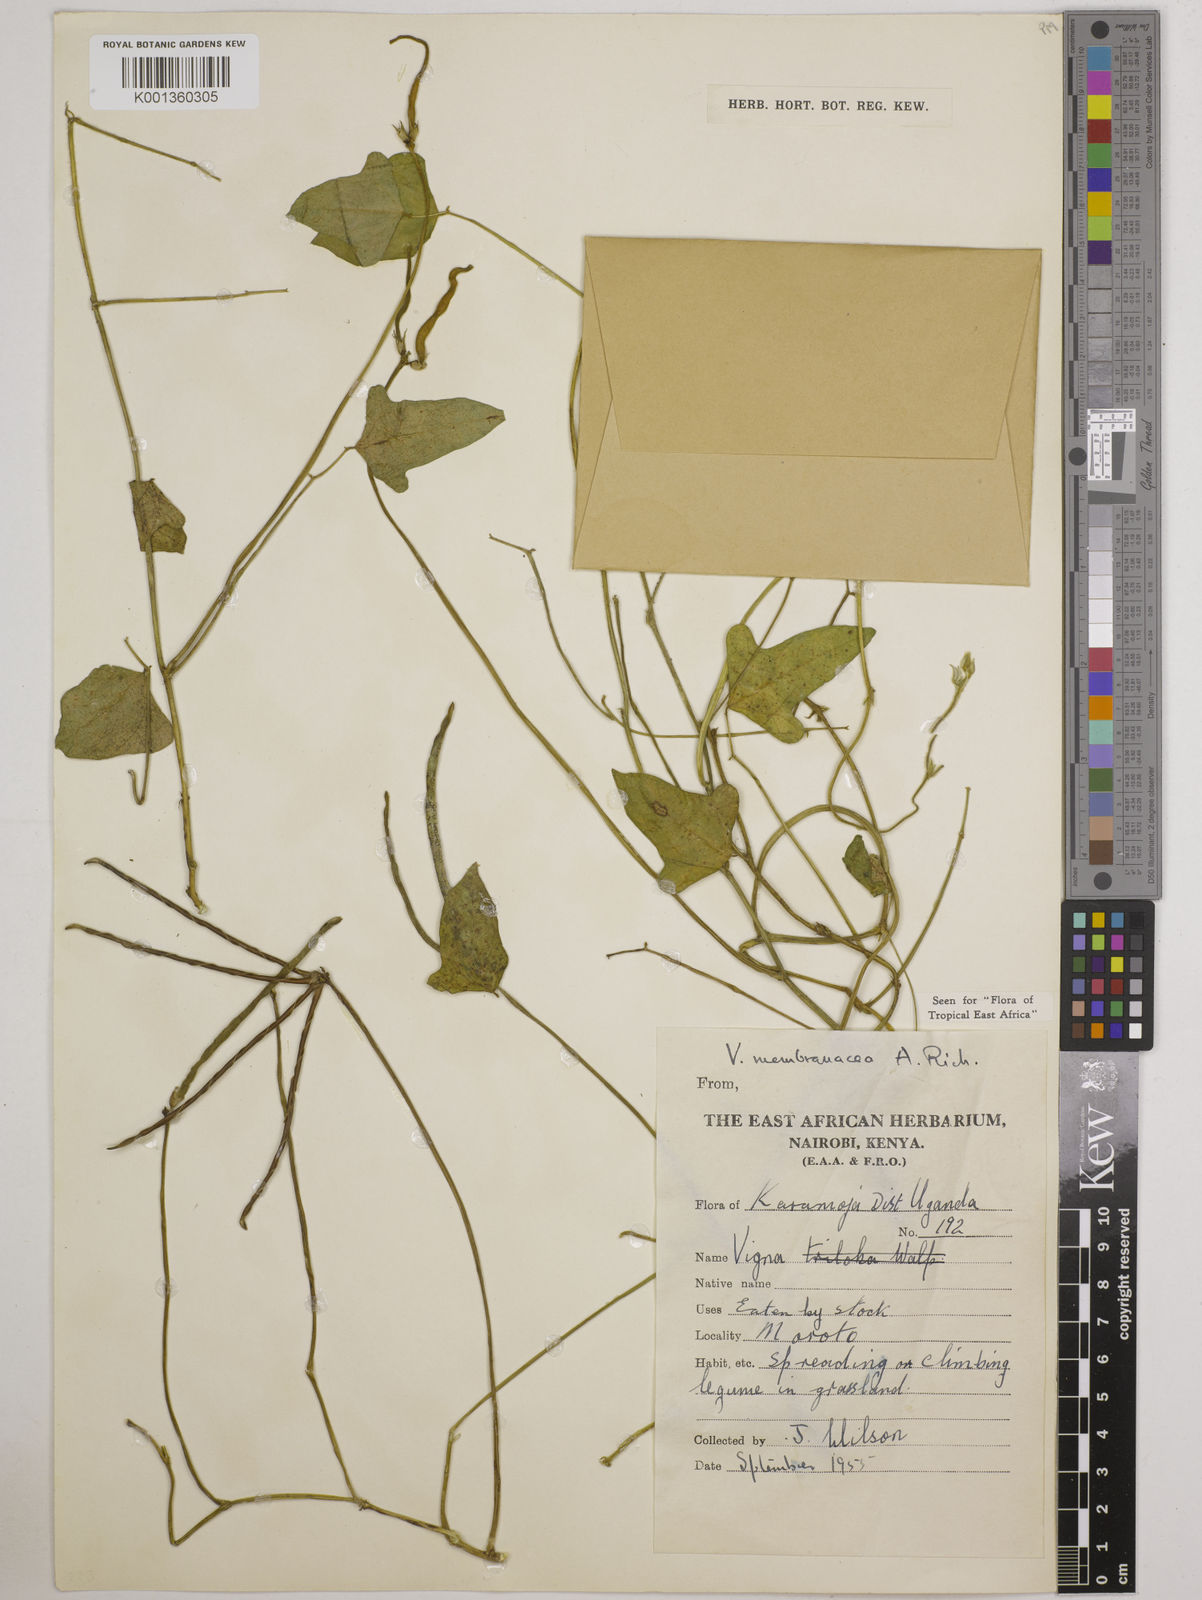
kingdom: Plantae
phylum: Tracheophyta
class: Magnoliopsida
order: Fabales
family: Fabaceae
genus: Vigna
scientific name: Vigna membranacea
